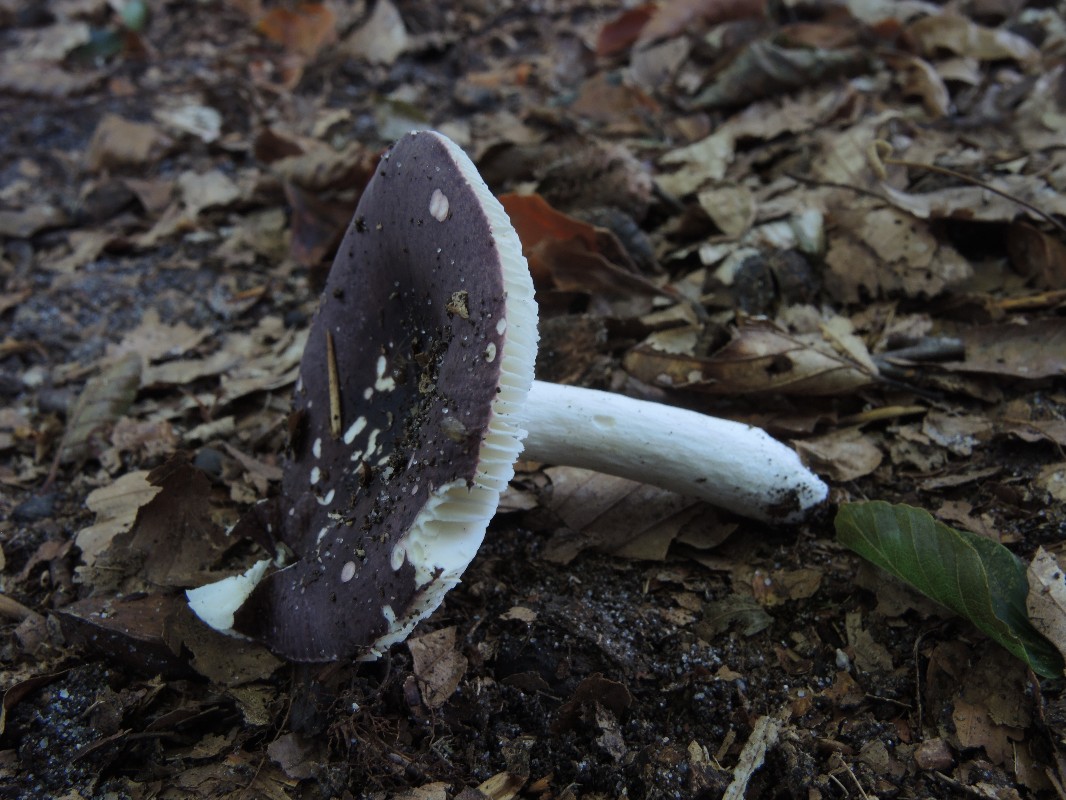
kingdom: Fungi
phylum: Basidiomycota
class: Agaricomycetes
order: Russulales
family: Russulaceae
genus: Russula
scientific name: Russula brunneoviolacea
